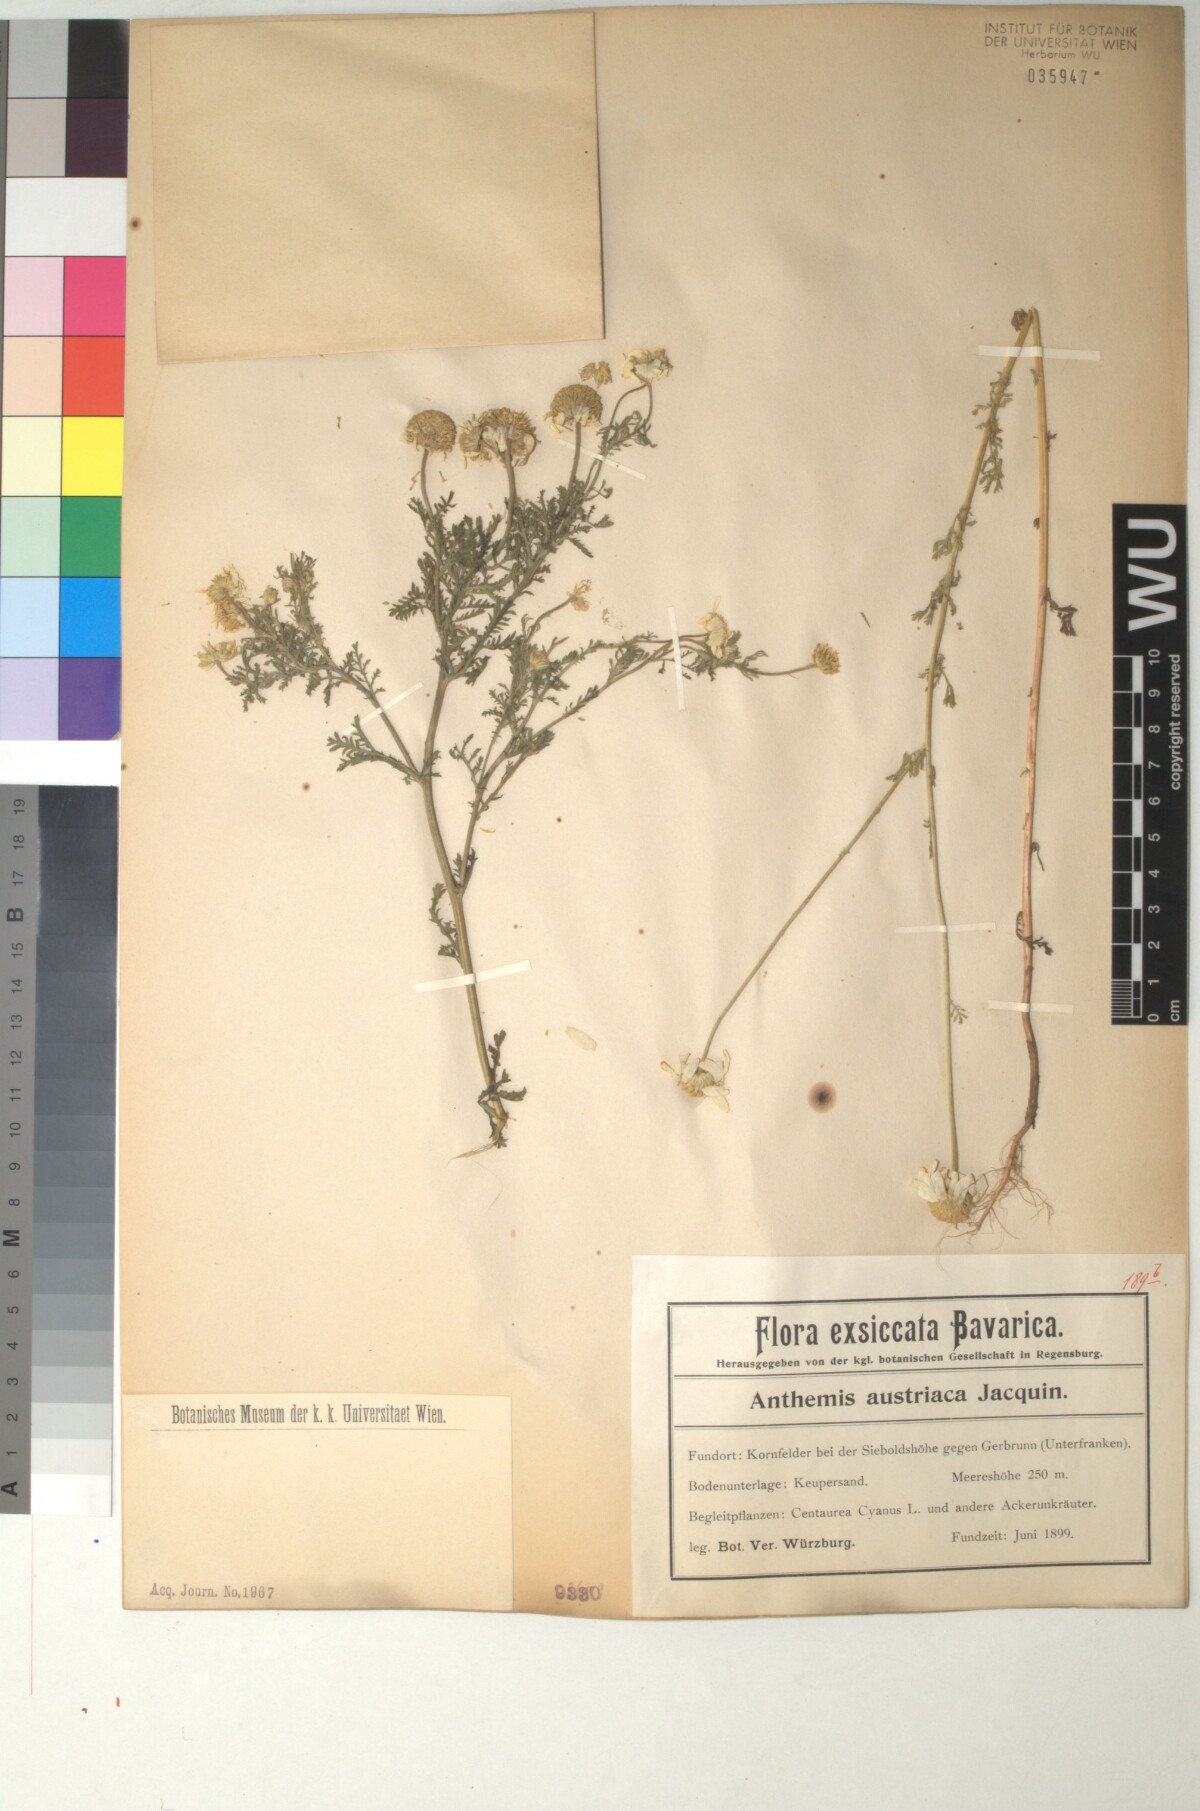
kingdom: Plantae
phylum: Tracheophyta
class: Magnoliopsida
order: Asterales
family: Asteraceae
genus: Cota
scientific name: Cota austriaca
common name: Austrian chamomile
